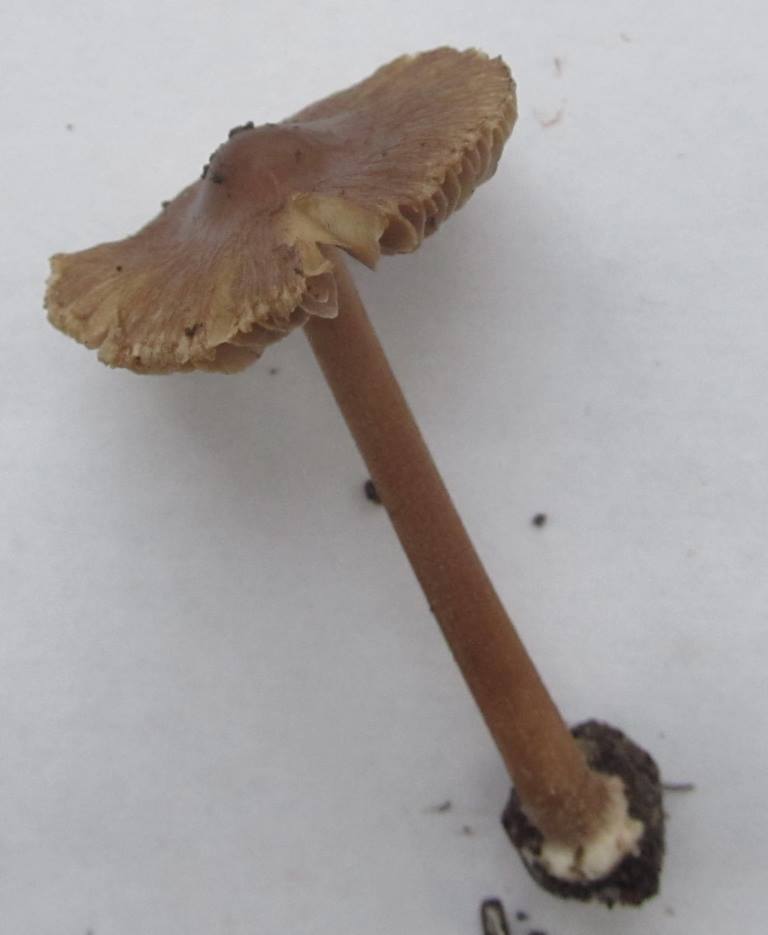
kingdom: Fungi
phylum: Basidiomycota
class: Agaricomycetes
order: Agaricales
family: Inocybaceae
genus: Inocybe
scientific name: Inocybe asterospora
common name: stjernesporet trævlhat
